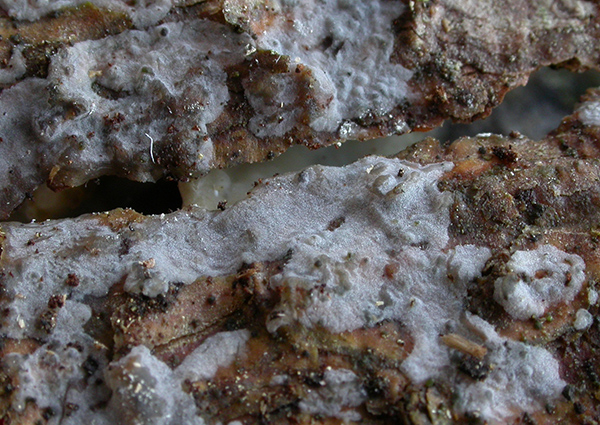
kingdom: Fungi
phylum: Basidiomycota
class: Agaricomycetes
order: Sebacinales
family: Sebacinaceae
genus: Sebacina
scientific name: Sebacina grisea
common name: blågrå bævrehinde
